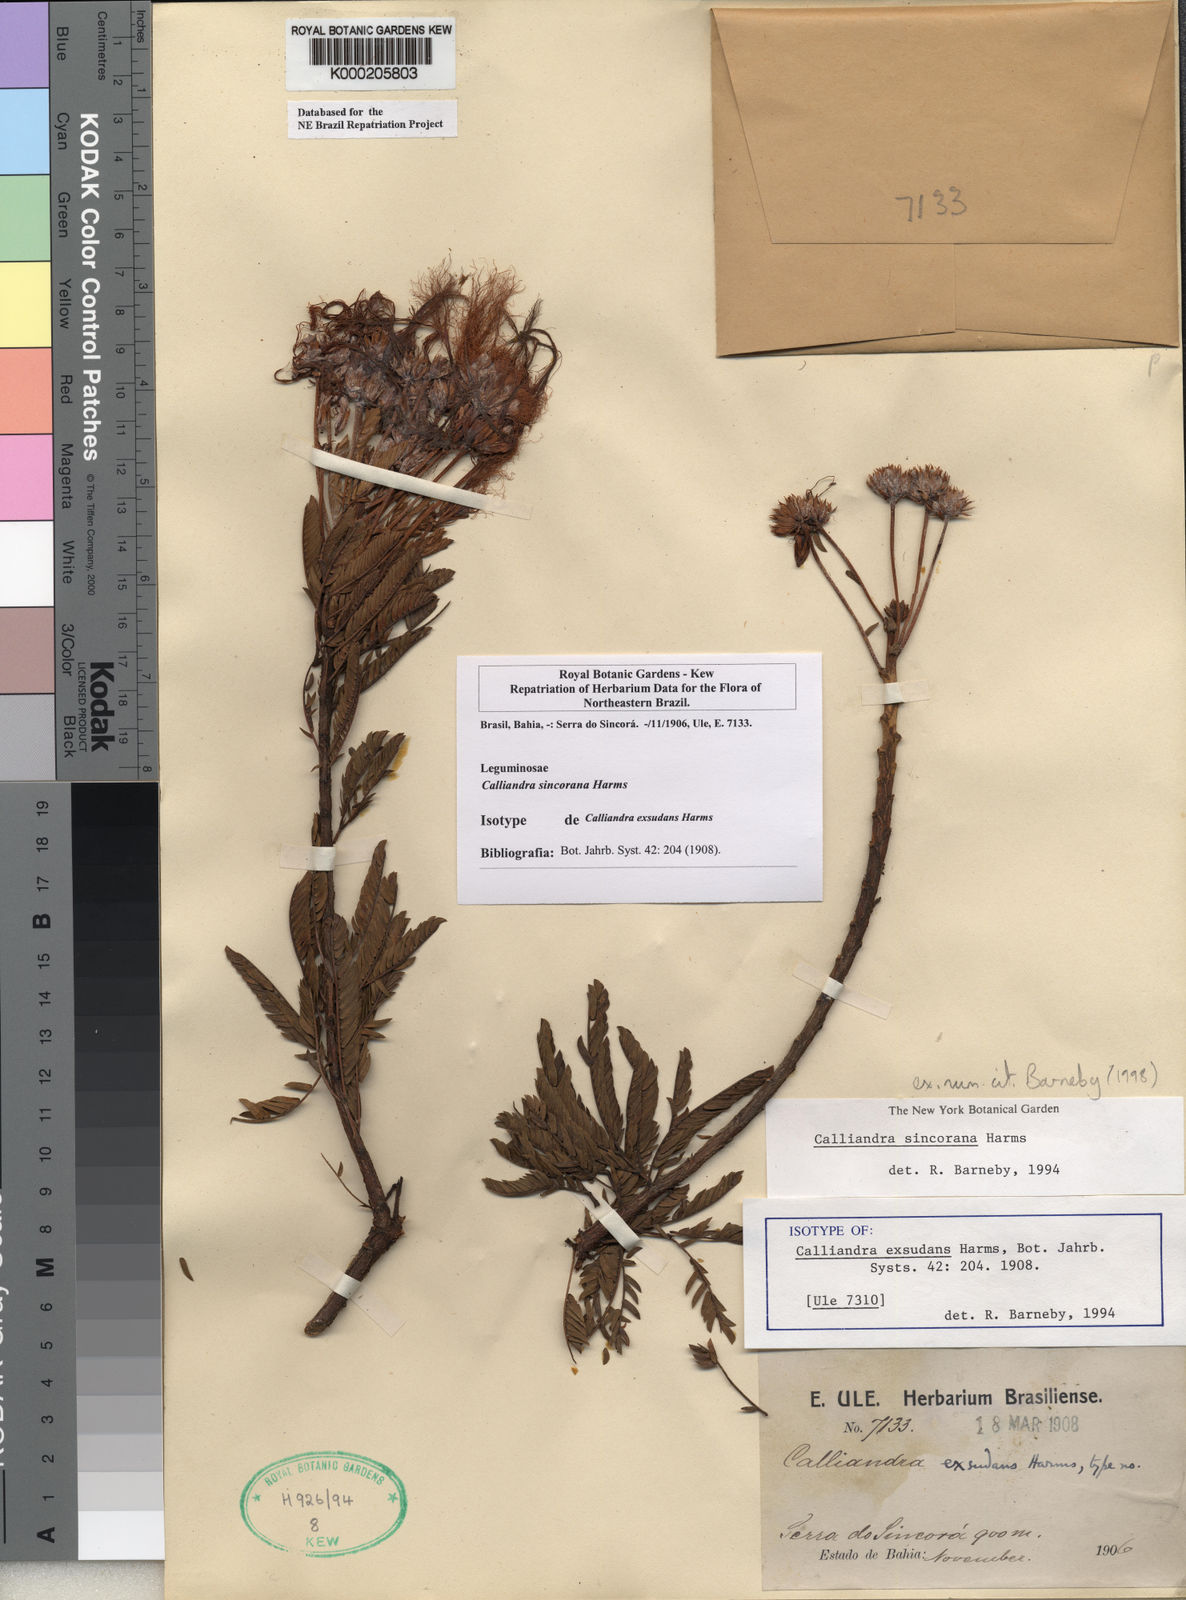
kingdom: Plantae
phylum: Tracheophyta
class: Magnoliopsida
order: Fabales
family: Fabaceae
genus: Calliandra
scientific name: Calliandra sincorana
